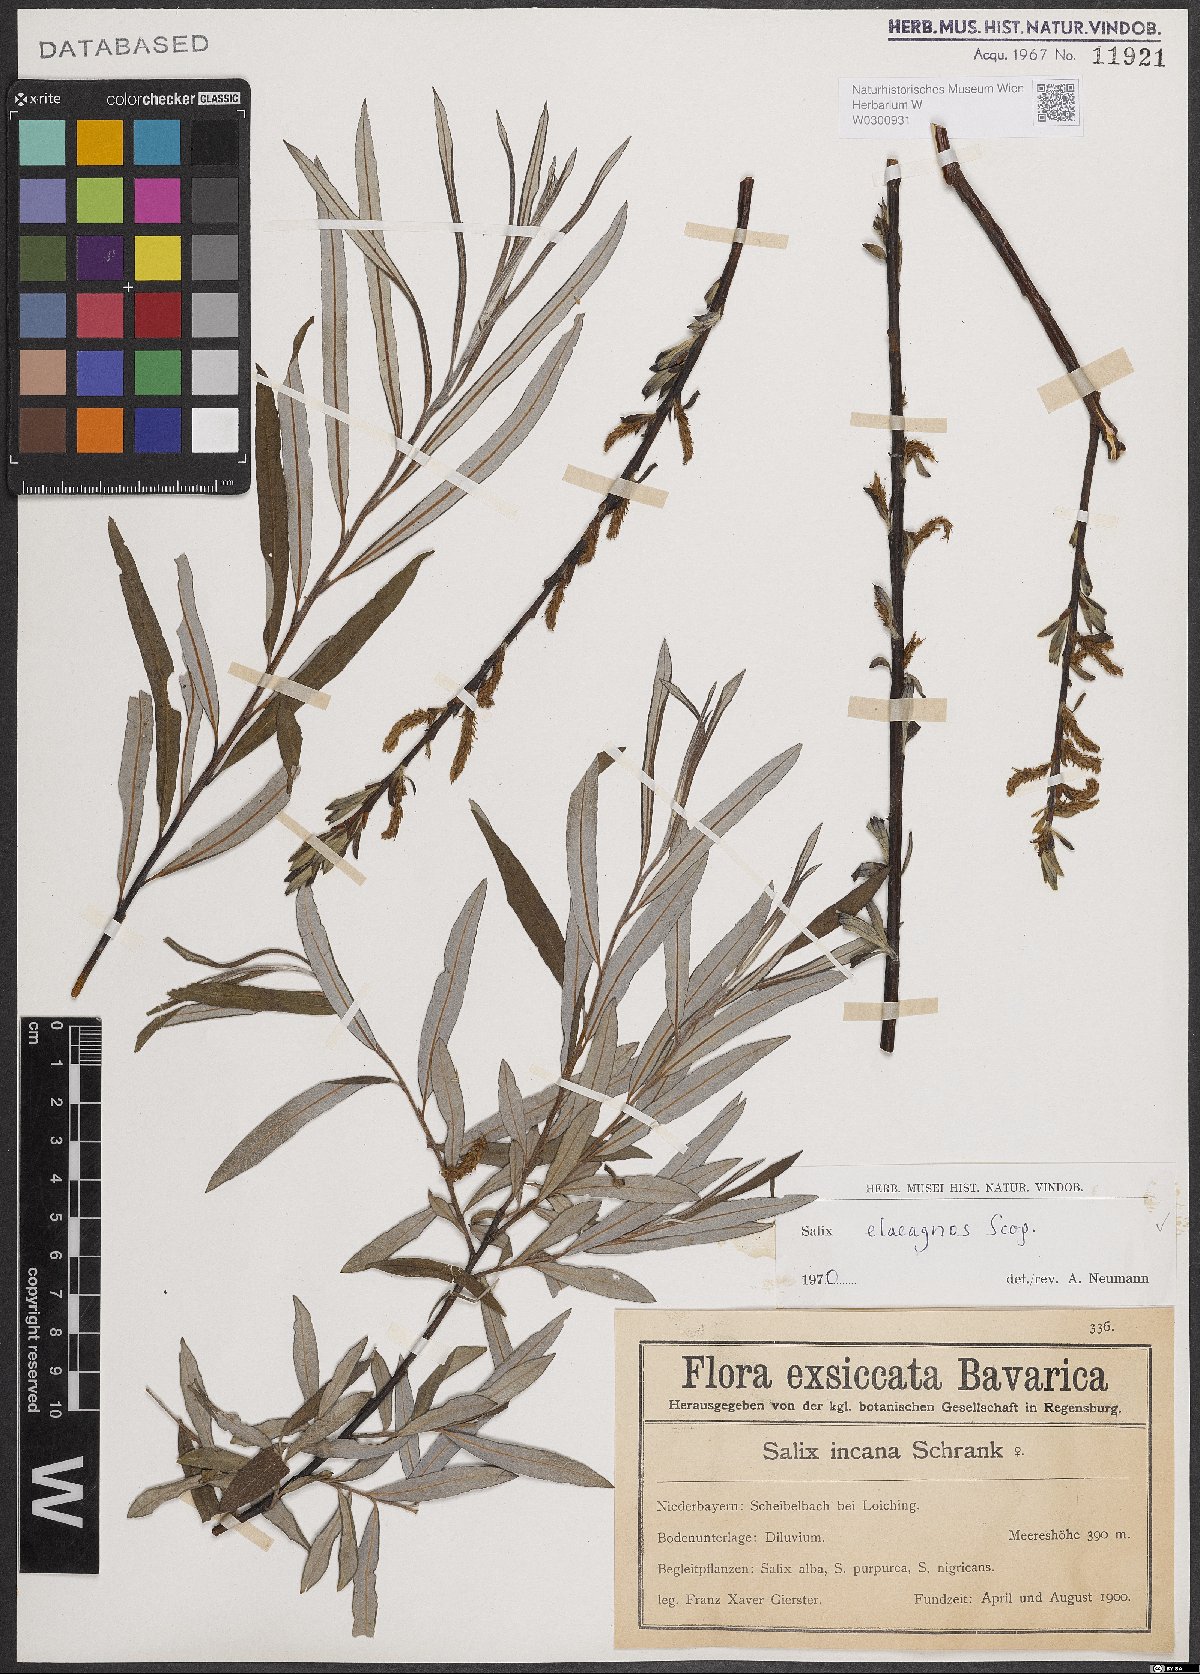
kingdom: Plantae
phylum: Tracheophyta
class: Magnoliopsida
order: Malpighiales
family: Salicaceae
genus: Salix
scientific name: Salix eleagnos
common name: Elaeagnus willow
